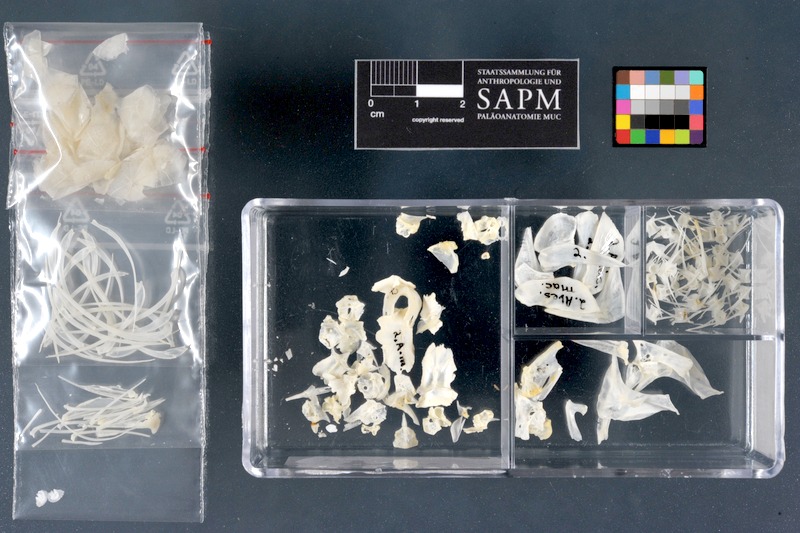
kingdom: Animalia
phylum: Chordata
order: Characiformes
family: Alestidae
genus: Brycinus
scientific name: Brycinus macrolepidotus
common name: Characin
